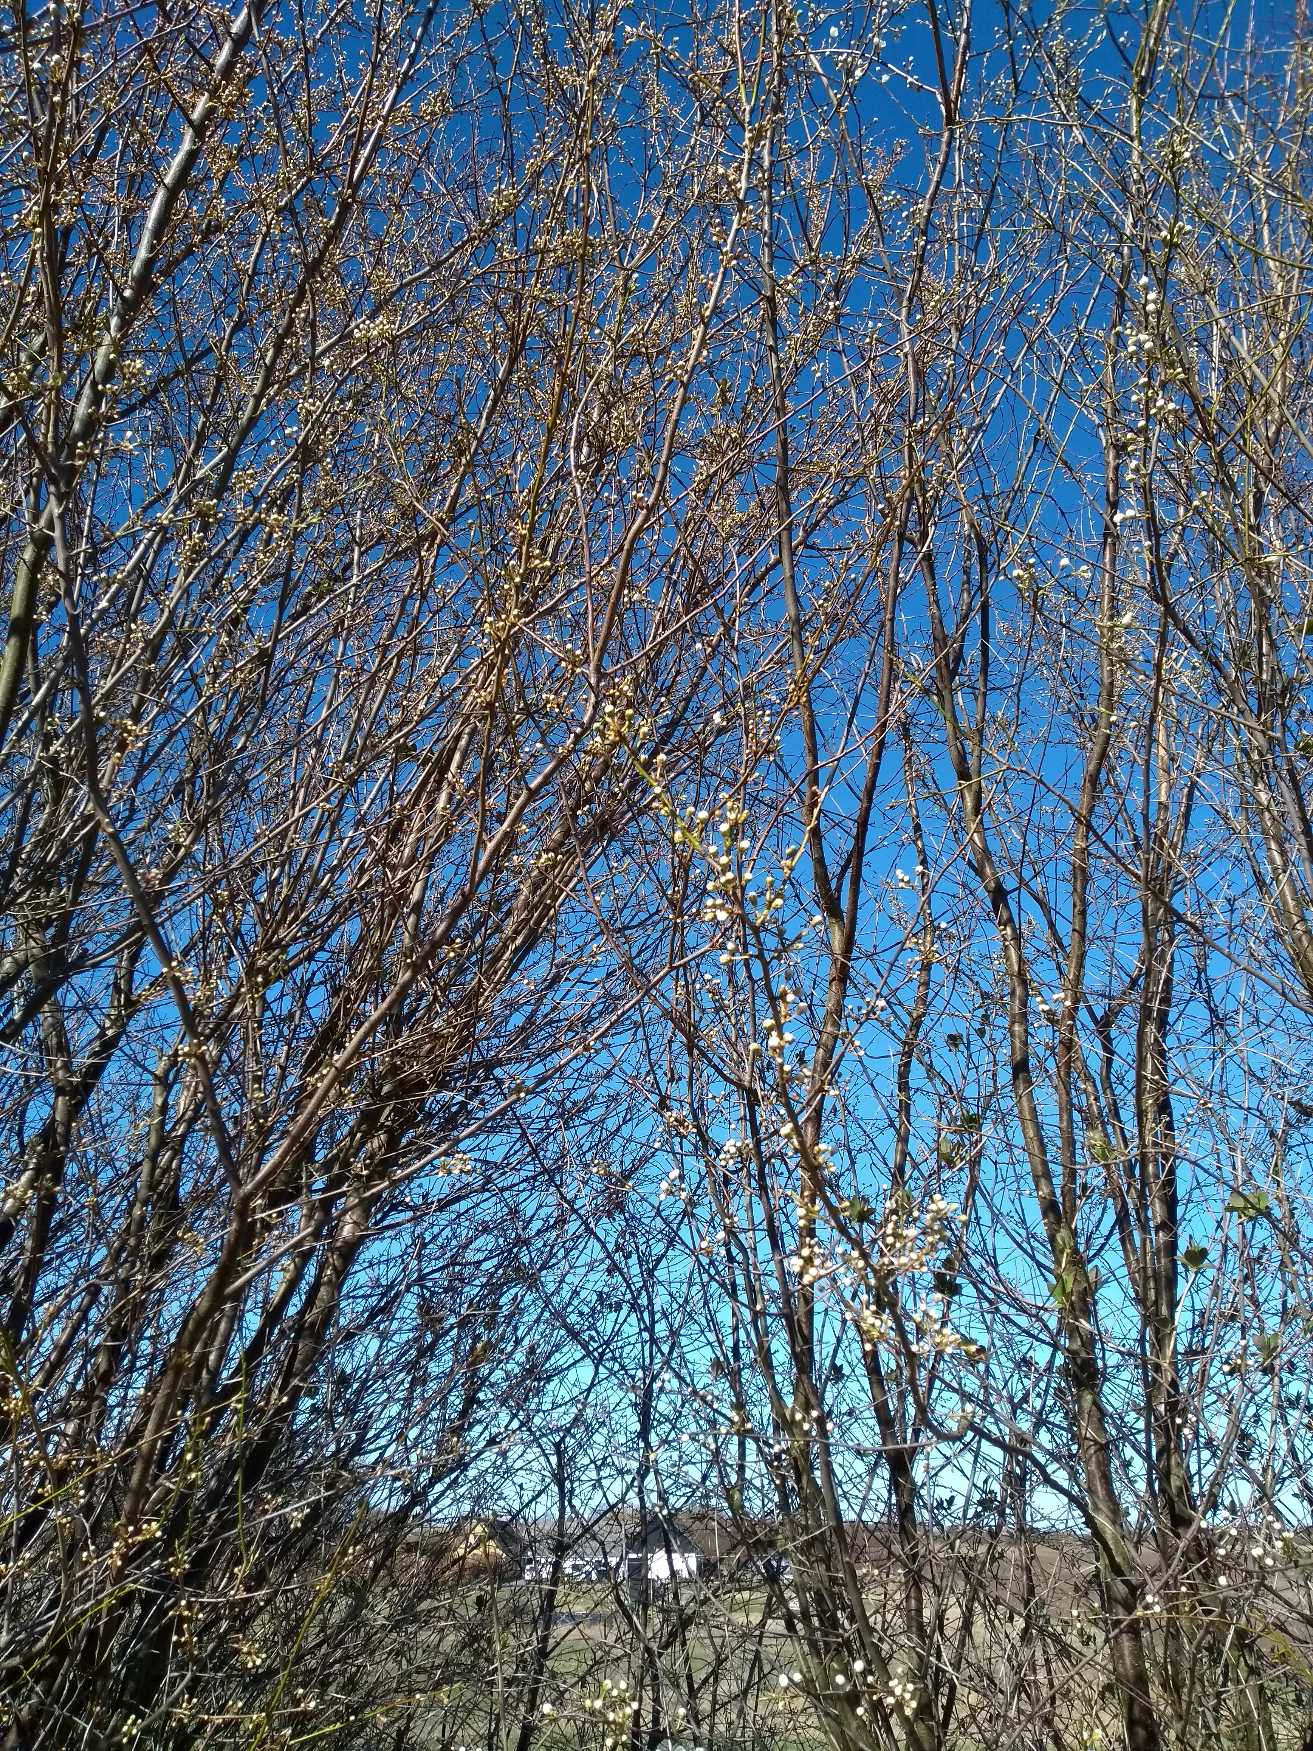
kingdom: Plantae
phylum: Tracheophyta
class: Magnoliopsida
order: Rosales
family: Rosaceae
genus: Prunus
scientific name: Prunus cerasifera
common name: Mirabel
